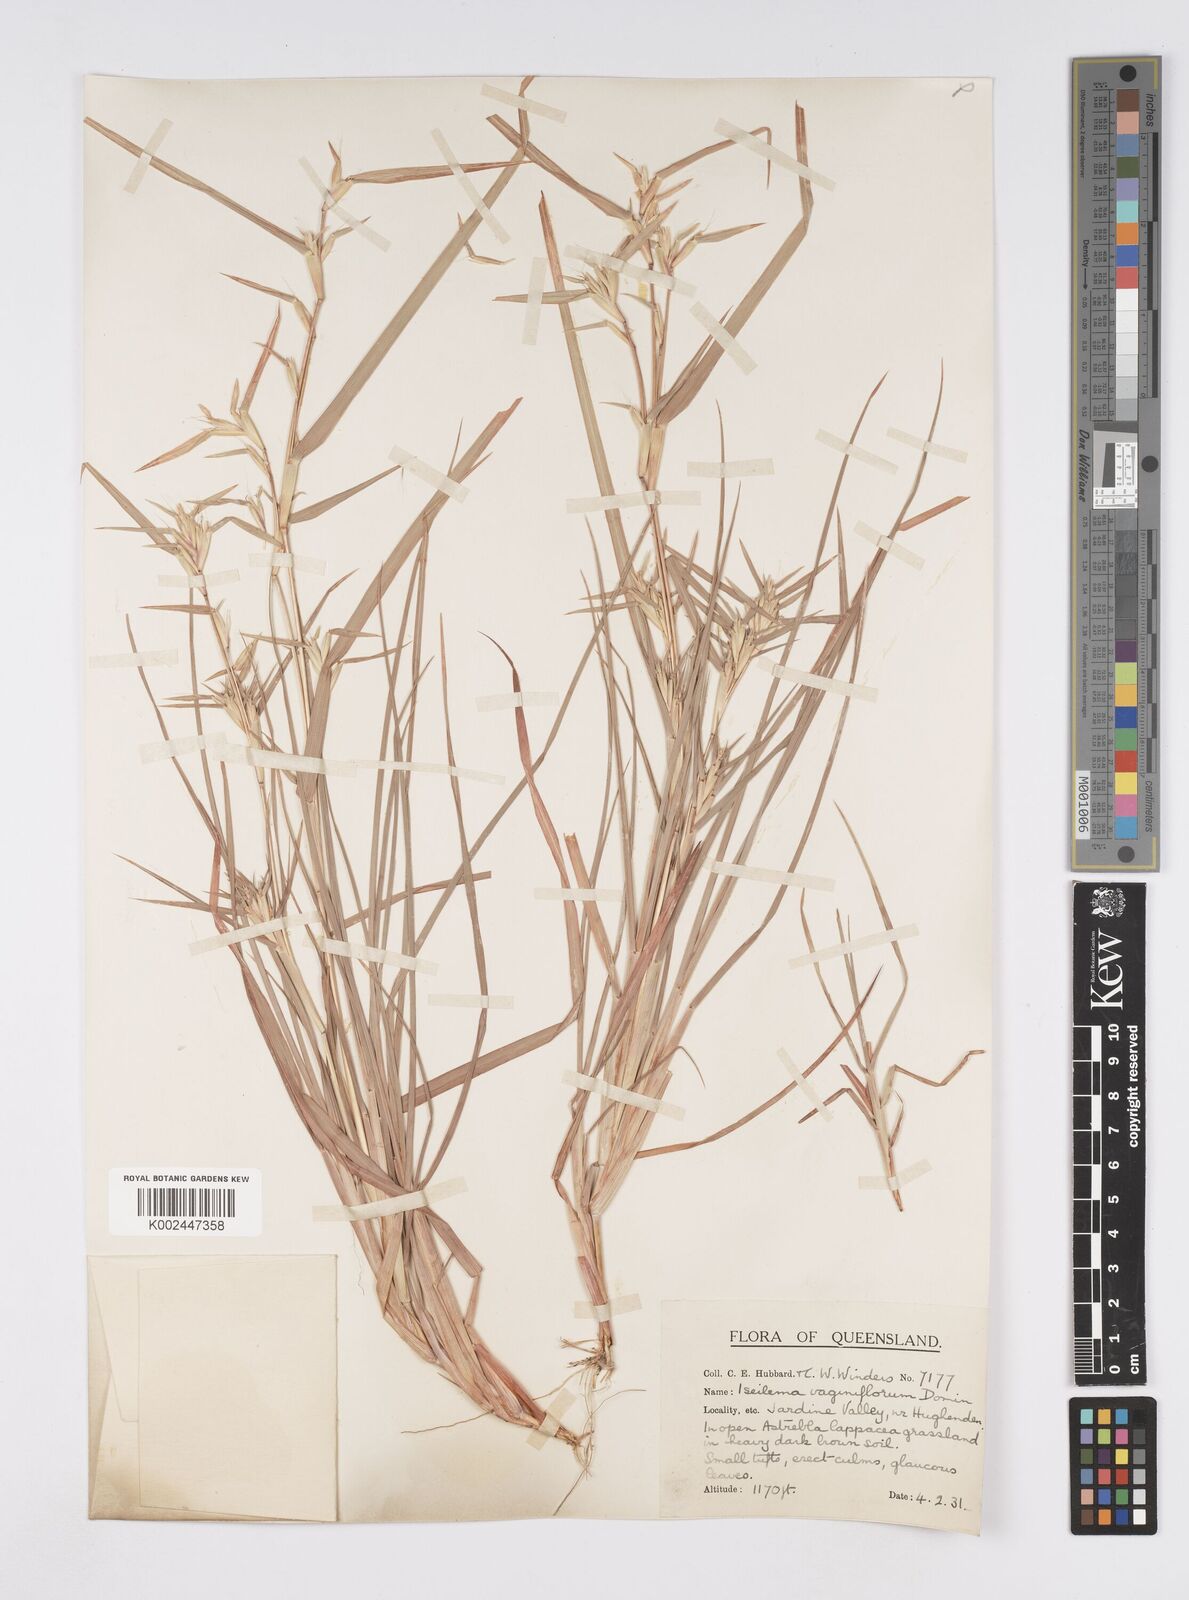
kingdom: Plantae
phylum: Tracheophyta
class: Liliopsida
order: Poales
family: Poaceae
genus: Iseilema
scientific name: Iseilema vaginiflorum
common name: Red flinders grass
